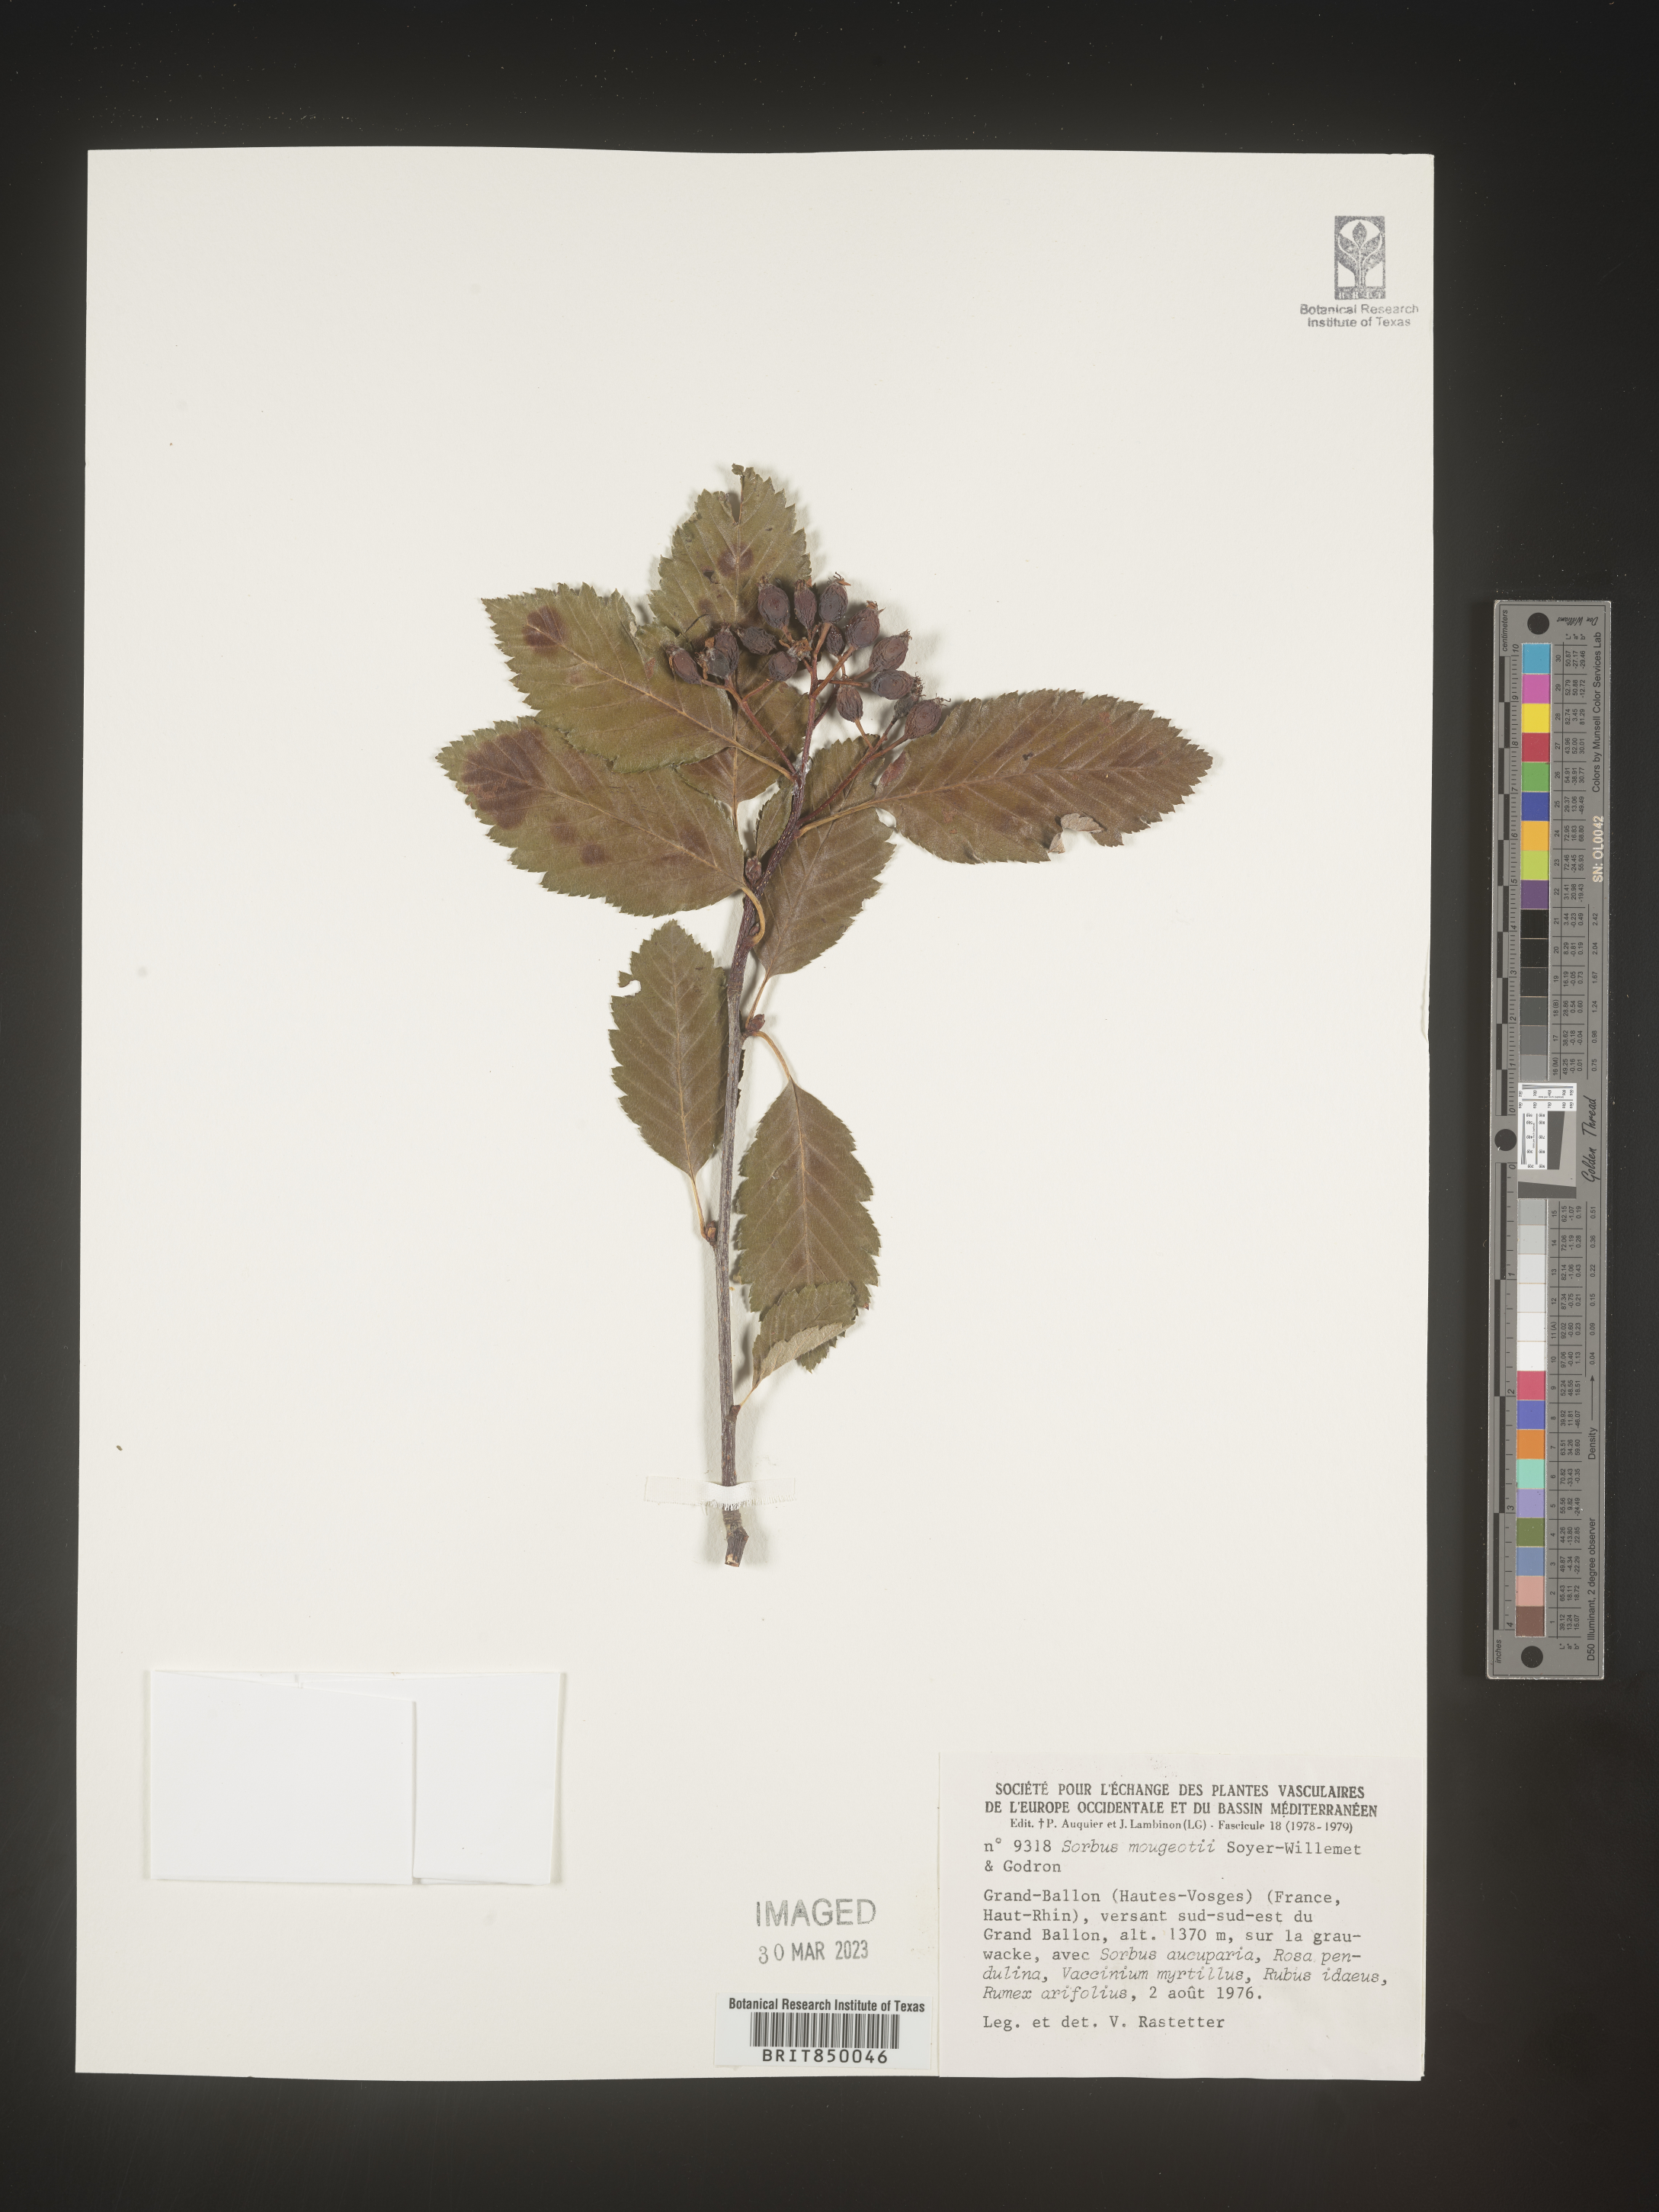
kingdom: Plantae
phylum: Tracheophyta
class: Magnoliopsida
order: Rosales
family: Rosaceae
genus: Sorbus
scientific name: Sorbus
